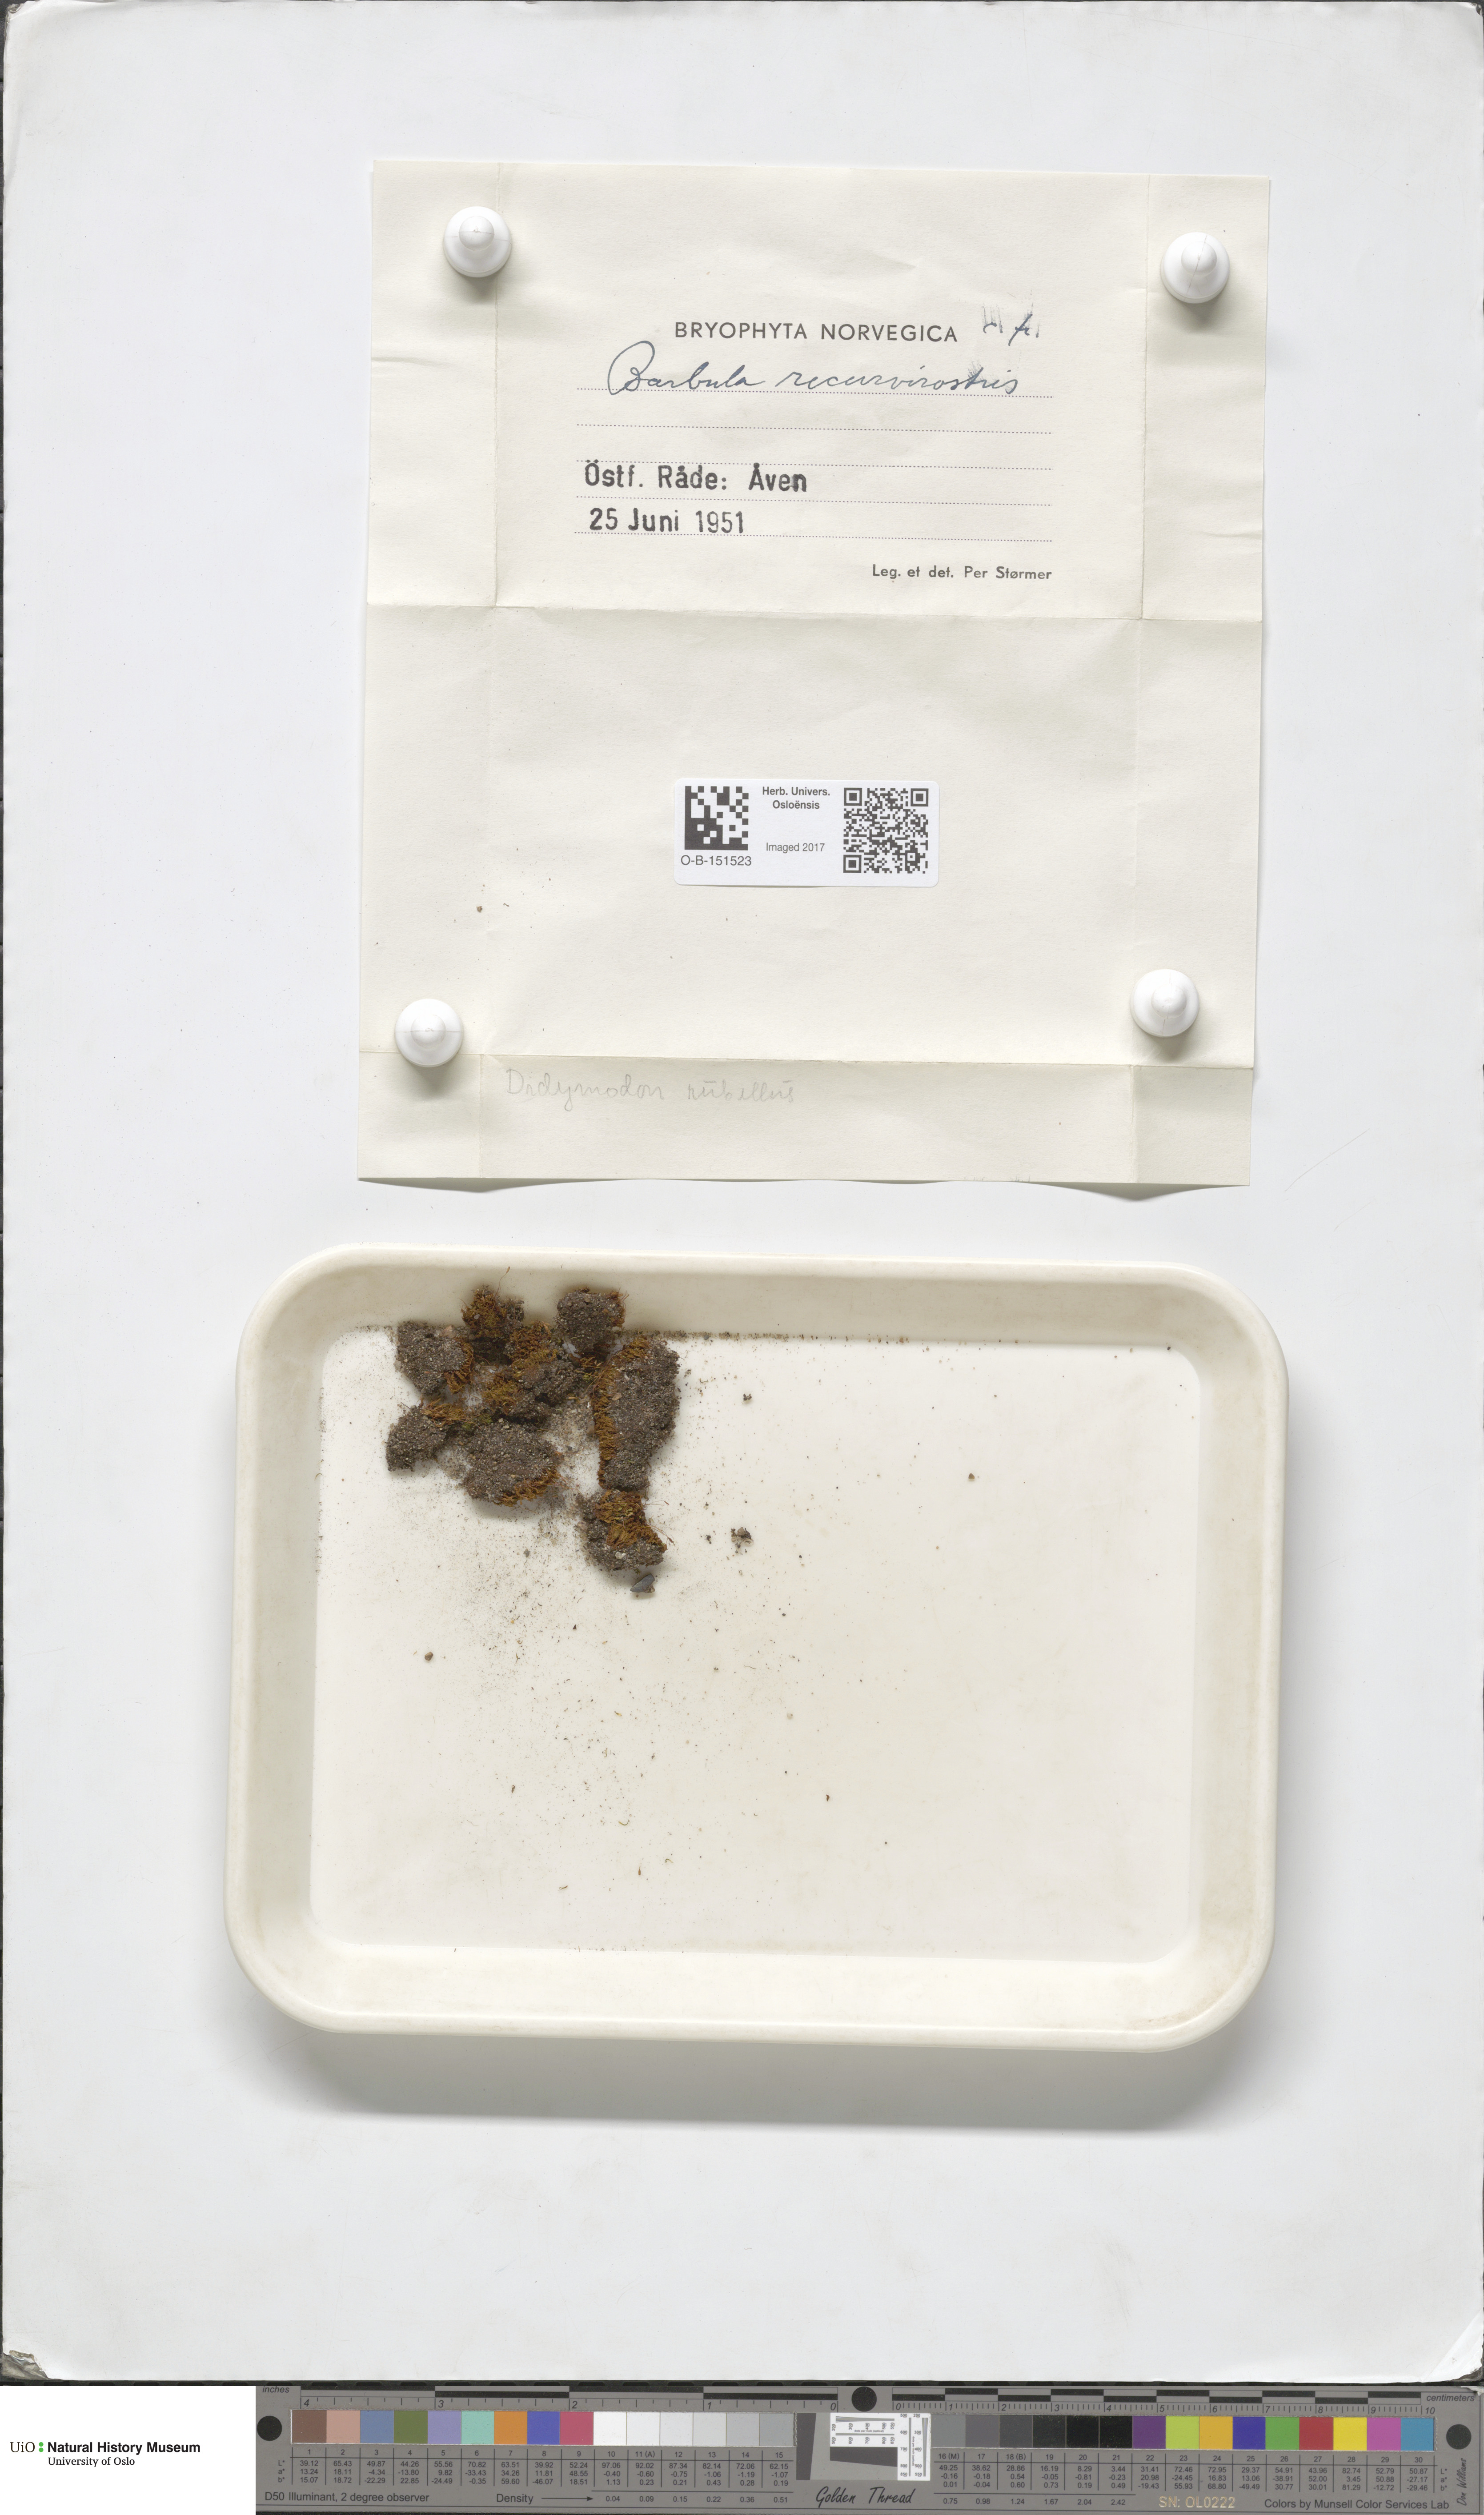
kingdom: Plantae
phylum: Bryophyta
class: Bryopsida
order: Pottiales
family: Pottiaceae
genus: Bryoerythrophyllum
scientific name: Bryoerythrophyllum recurvirostrum
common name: Red beard moss
